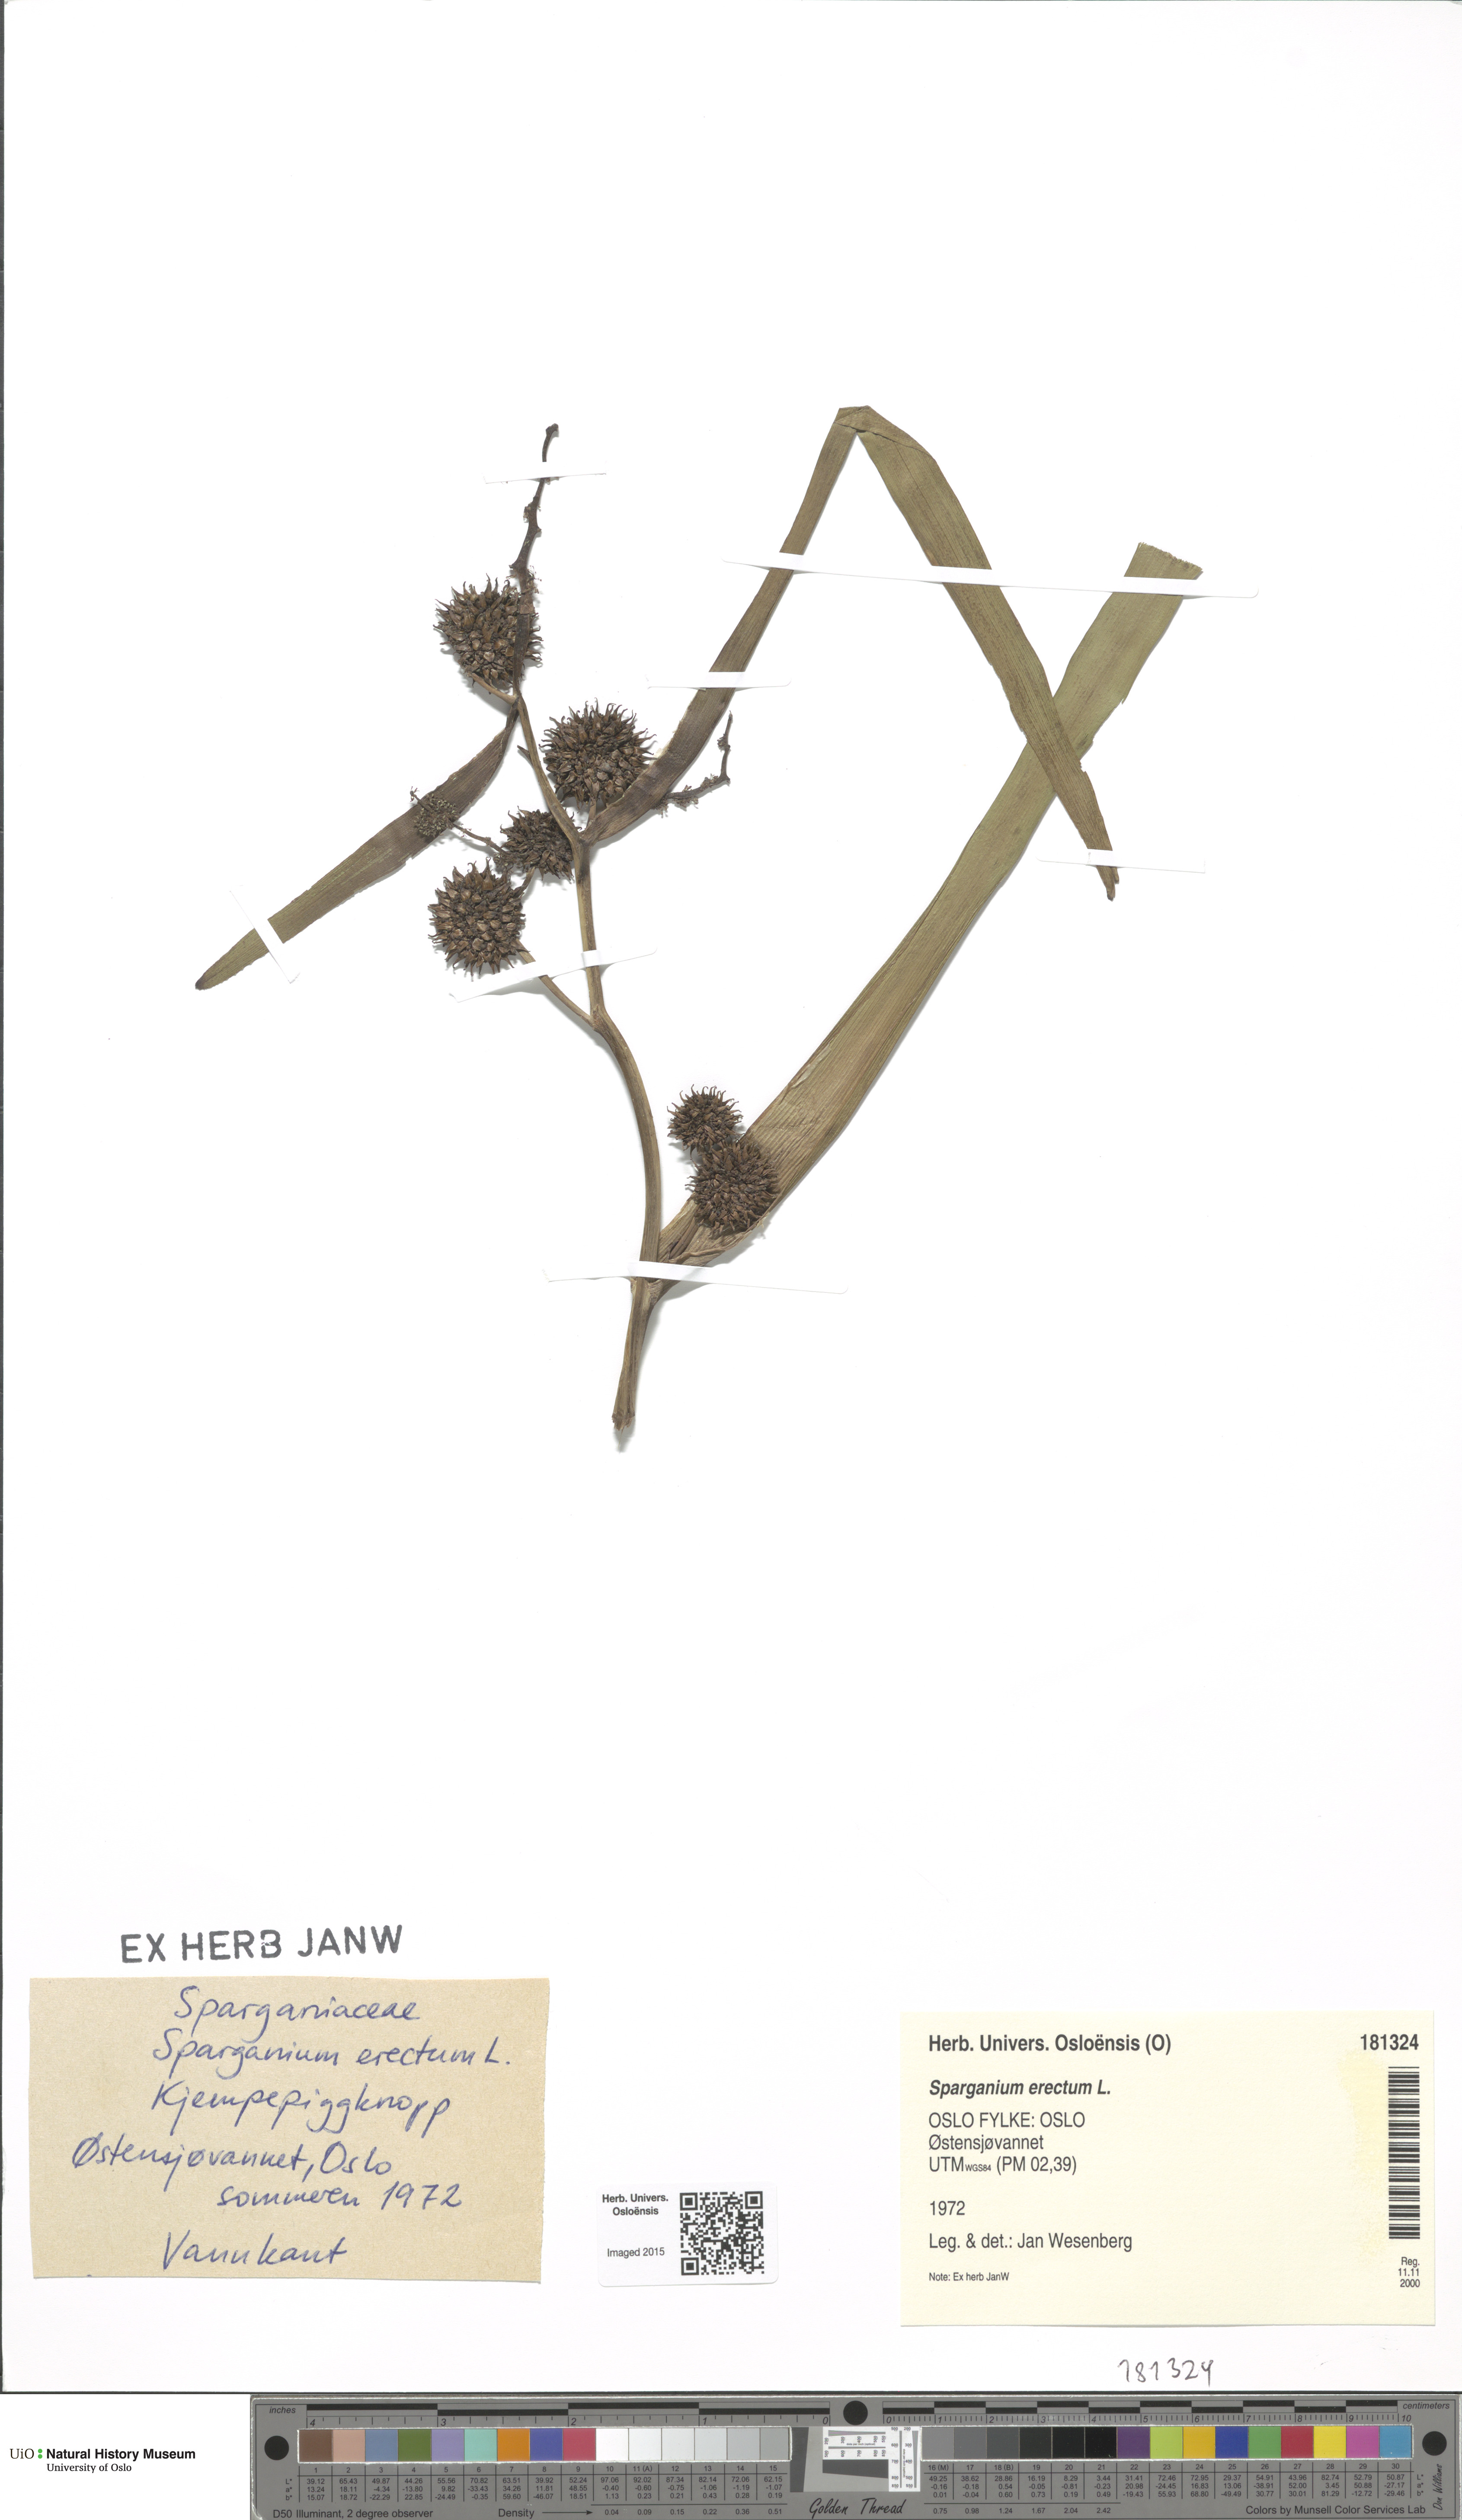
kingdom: Plantae
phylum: Tracheophyta
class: Liliopsida
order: Poales
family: Typhaceae
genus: Sparganium
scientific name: Sparganium erectum
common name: Branched bur-reed
